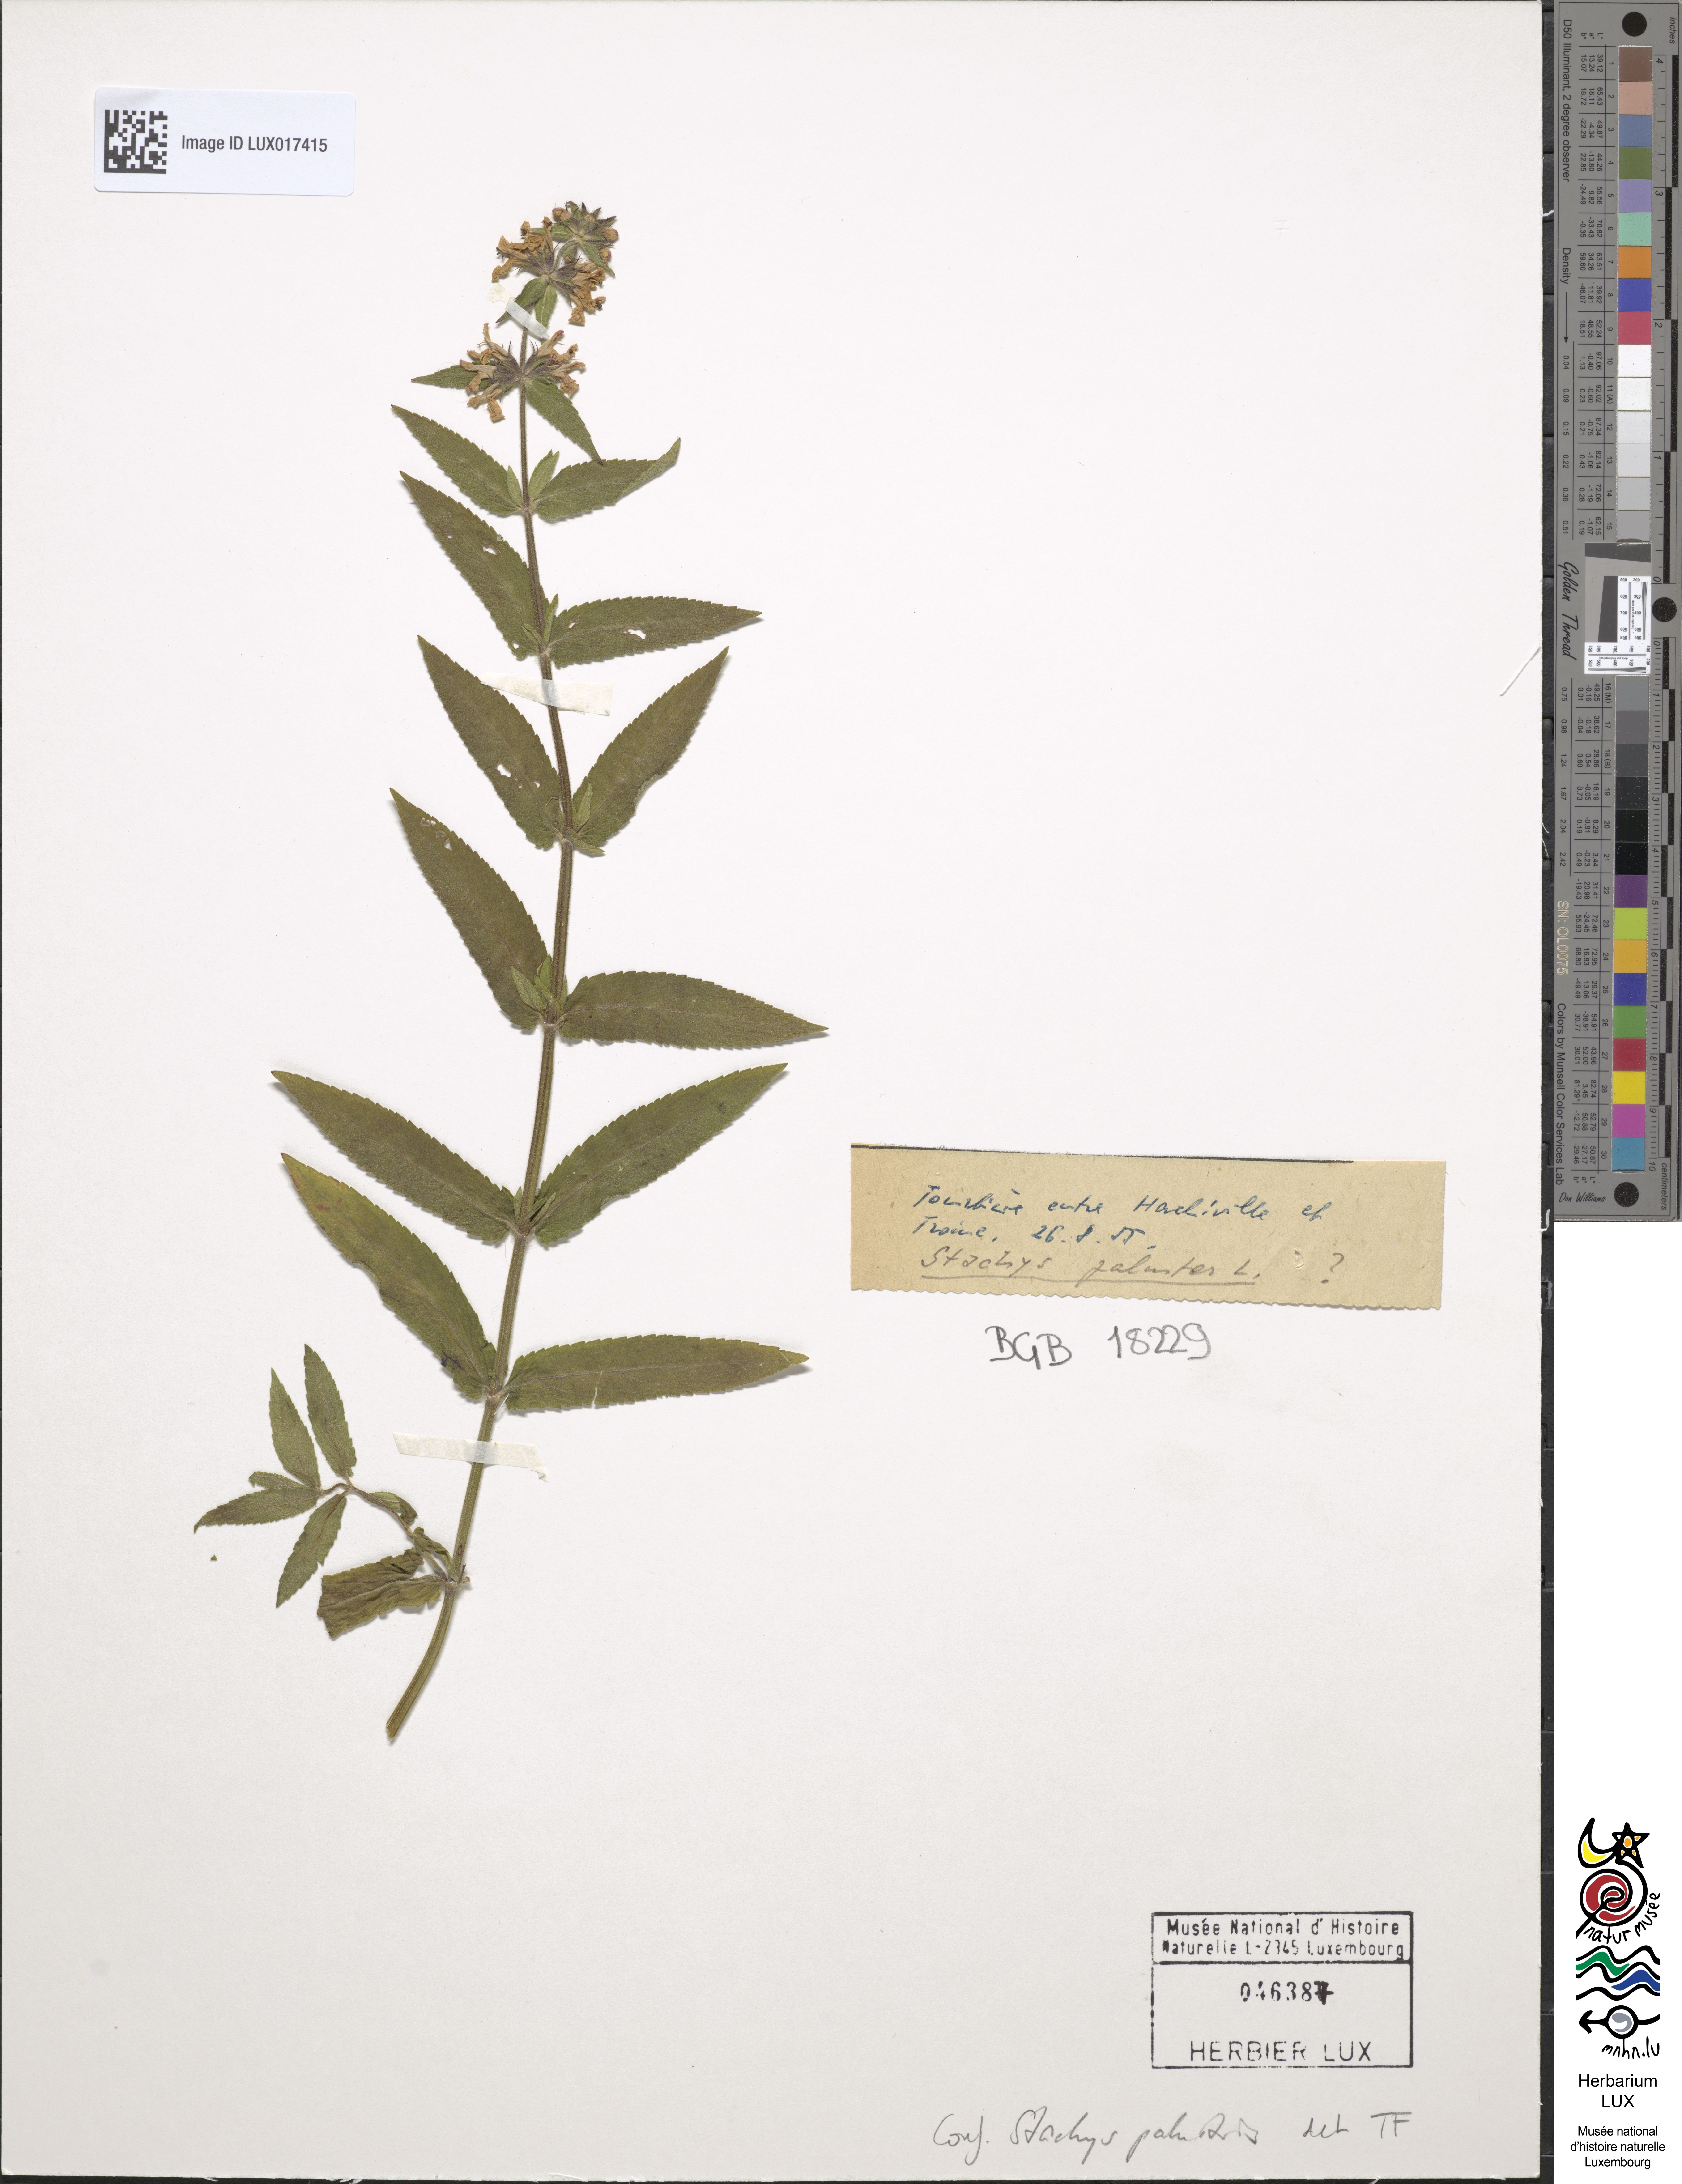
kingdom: Plantae
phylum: Tracheophyta
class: Magnoliopsida
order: Lamiales
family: Lamiaceae
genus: Stachys
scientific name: Stachys palustris
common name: Marsh woundwort
